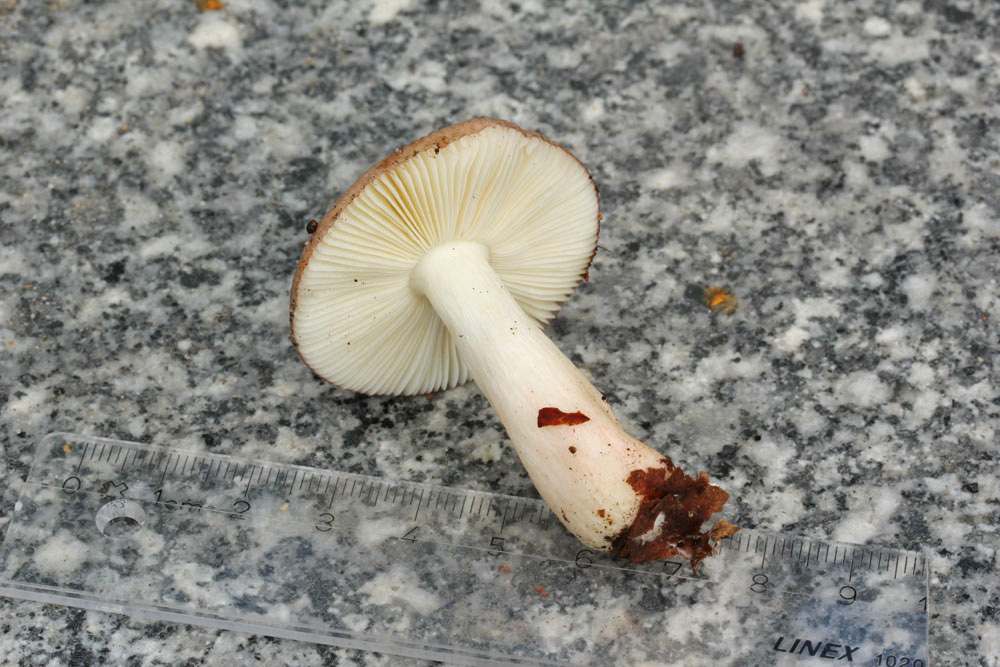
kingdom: Fungi
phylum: Basidiomycota
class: Agaricomycetes
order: Russulales
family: Russulaceae
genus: Russula
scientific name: Russula nitida
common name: året skørhat
